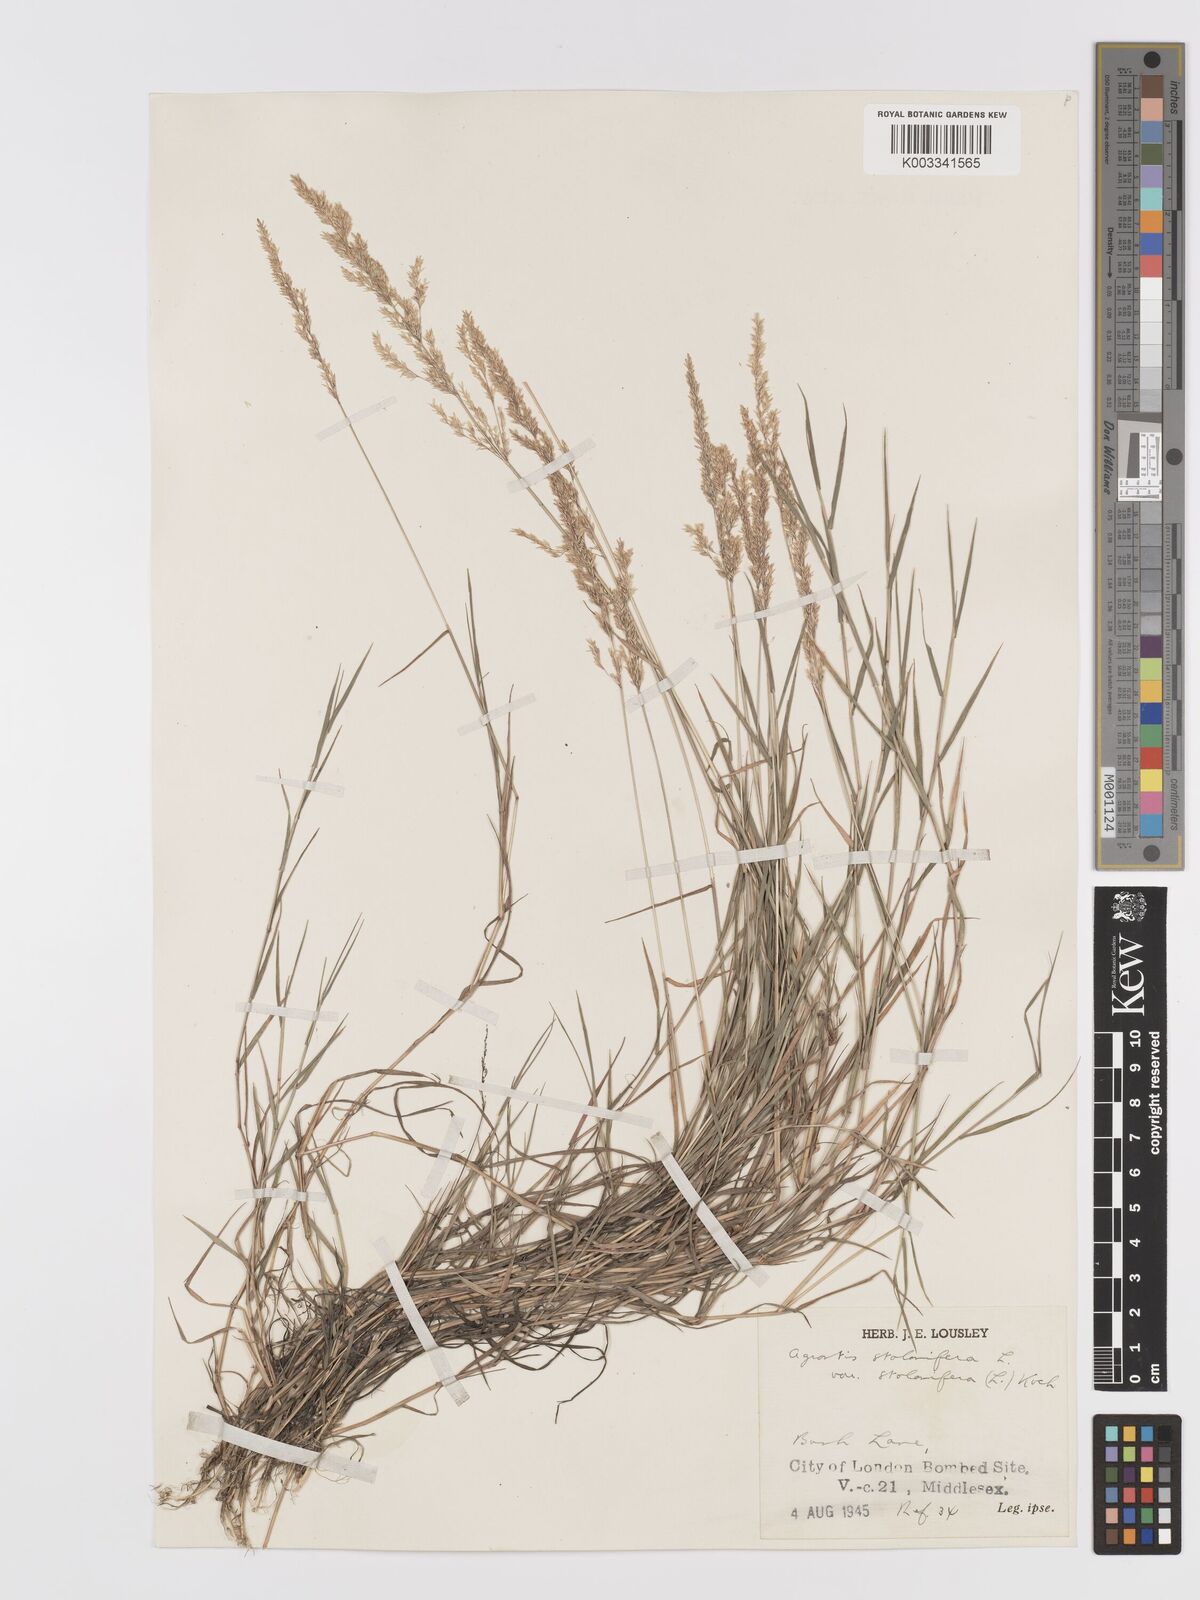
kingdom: Plantae
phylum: Tracheophyta
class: Liliopsida
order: Poales
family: Poaceae
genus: Agrostis
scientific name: Agrostis stolonifera
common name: Creeping bentgrass
